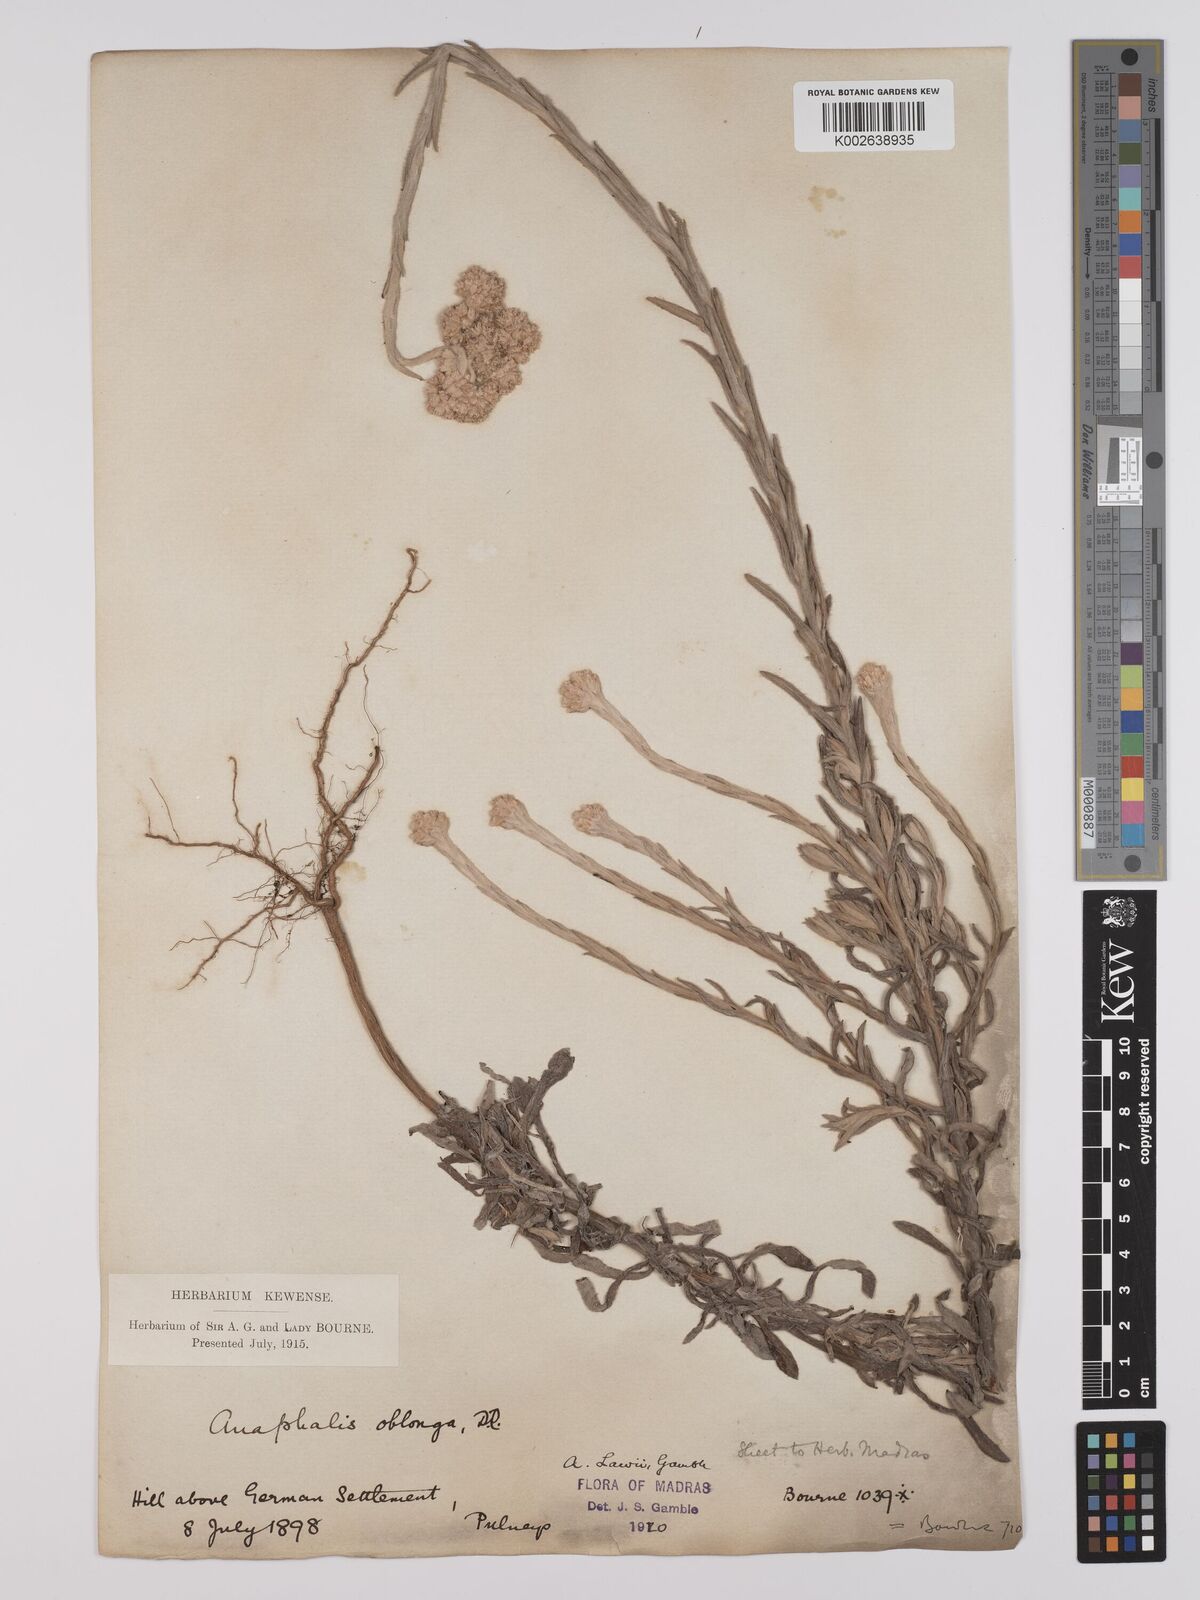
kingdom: Plantae
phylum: Tracheophyta
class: Magnoliopsida
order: Asterales
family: Asteraceae
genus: Anaphalis
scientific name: Anaphalis lawii
